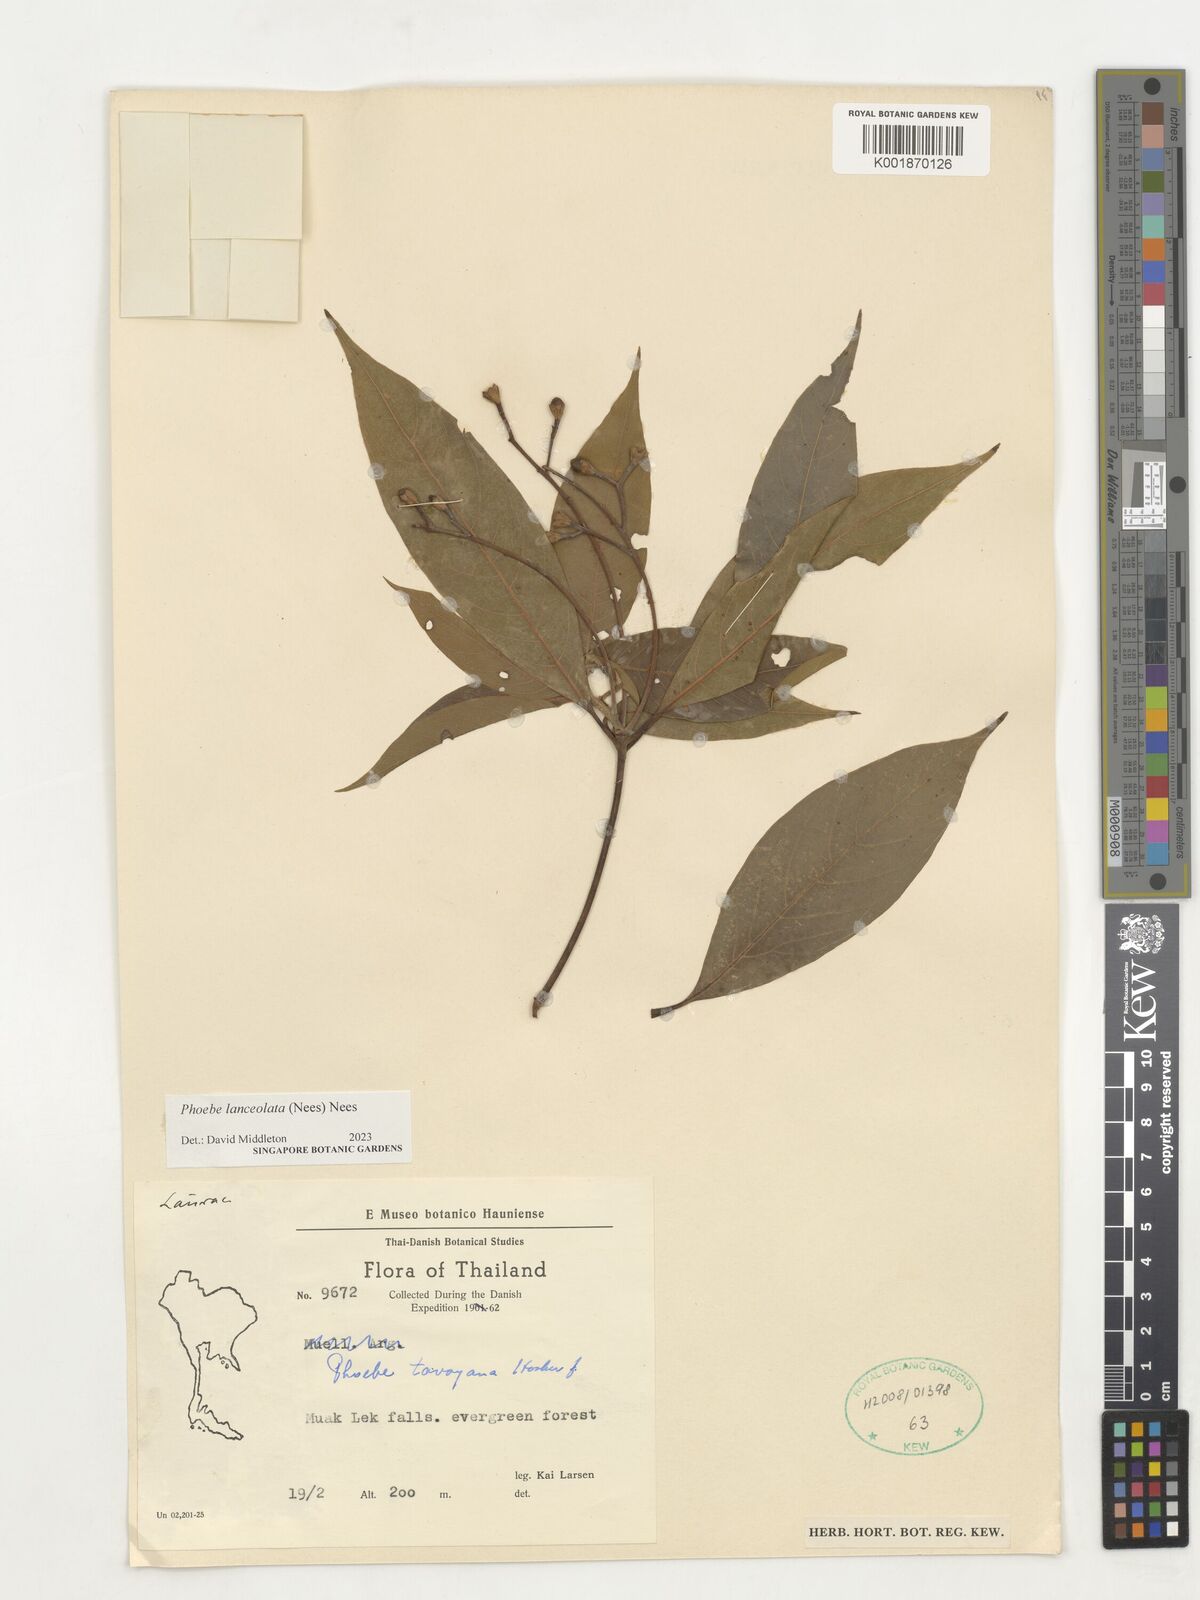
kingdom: Plantae
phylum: Tracheophyta
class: Magnoliopsida
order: Laurales
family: Lauraceae
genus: Phoebe
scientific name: Phoebe lanceolata
